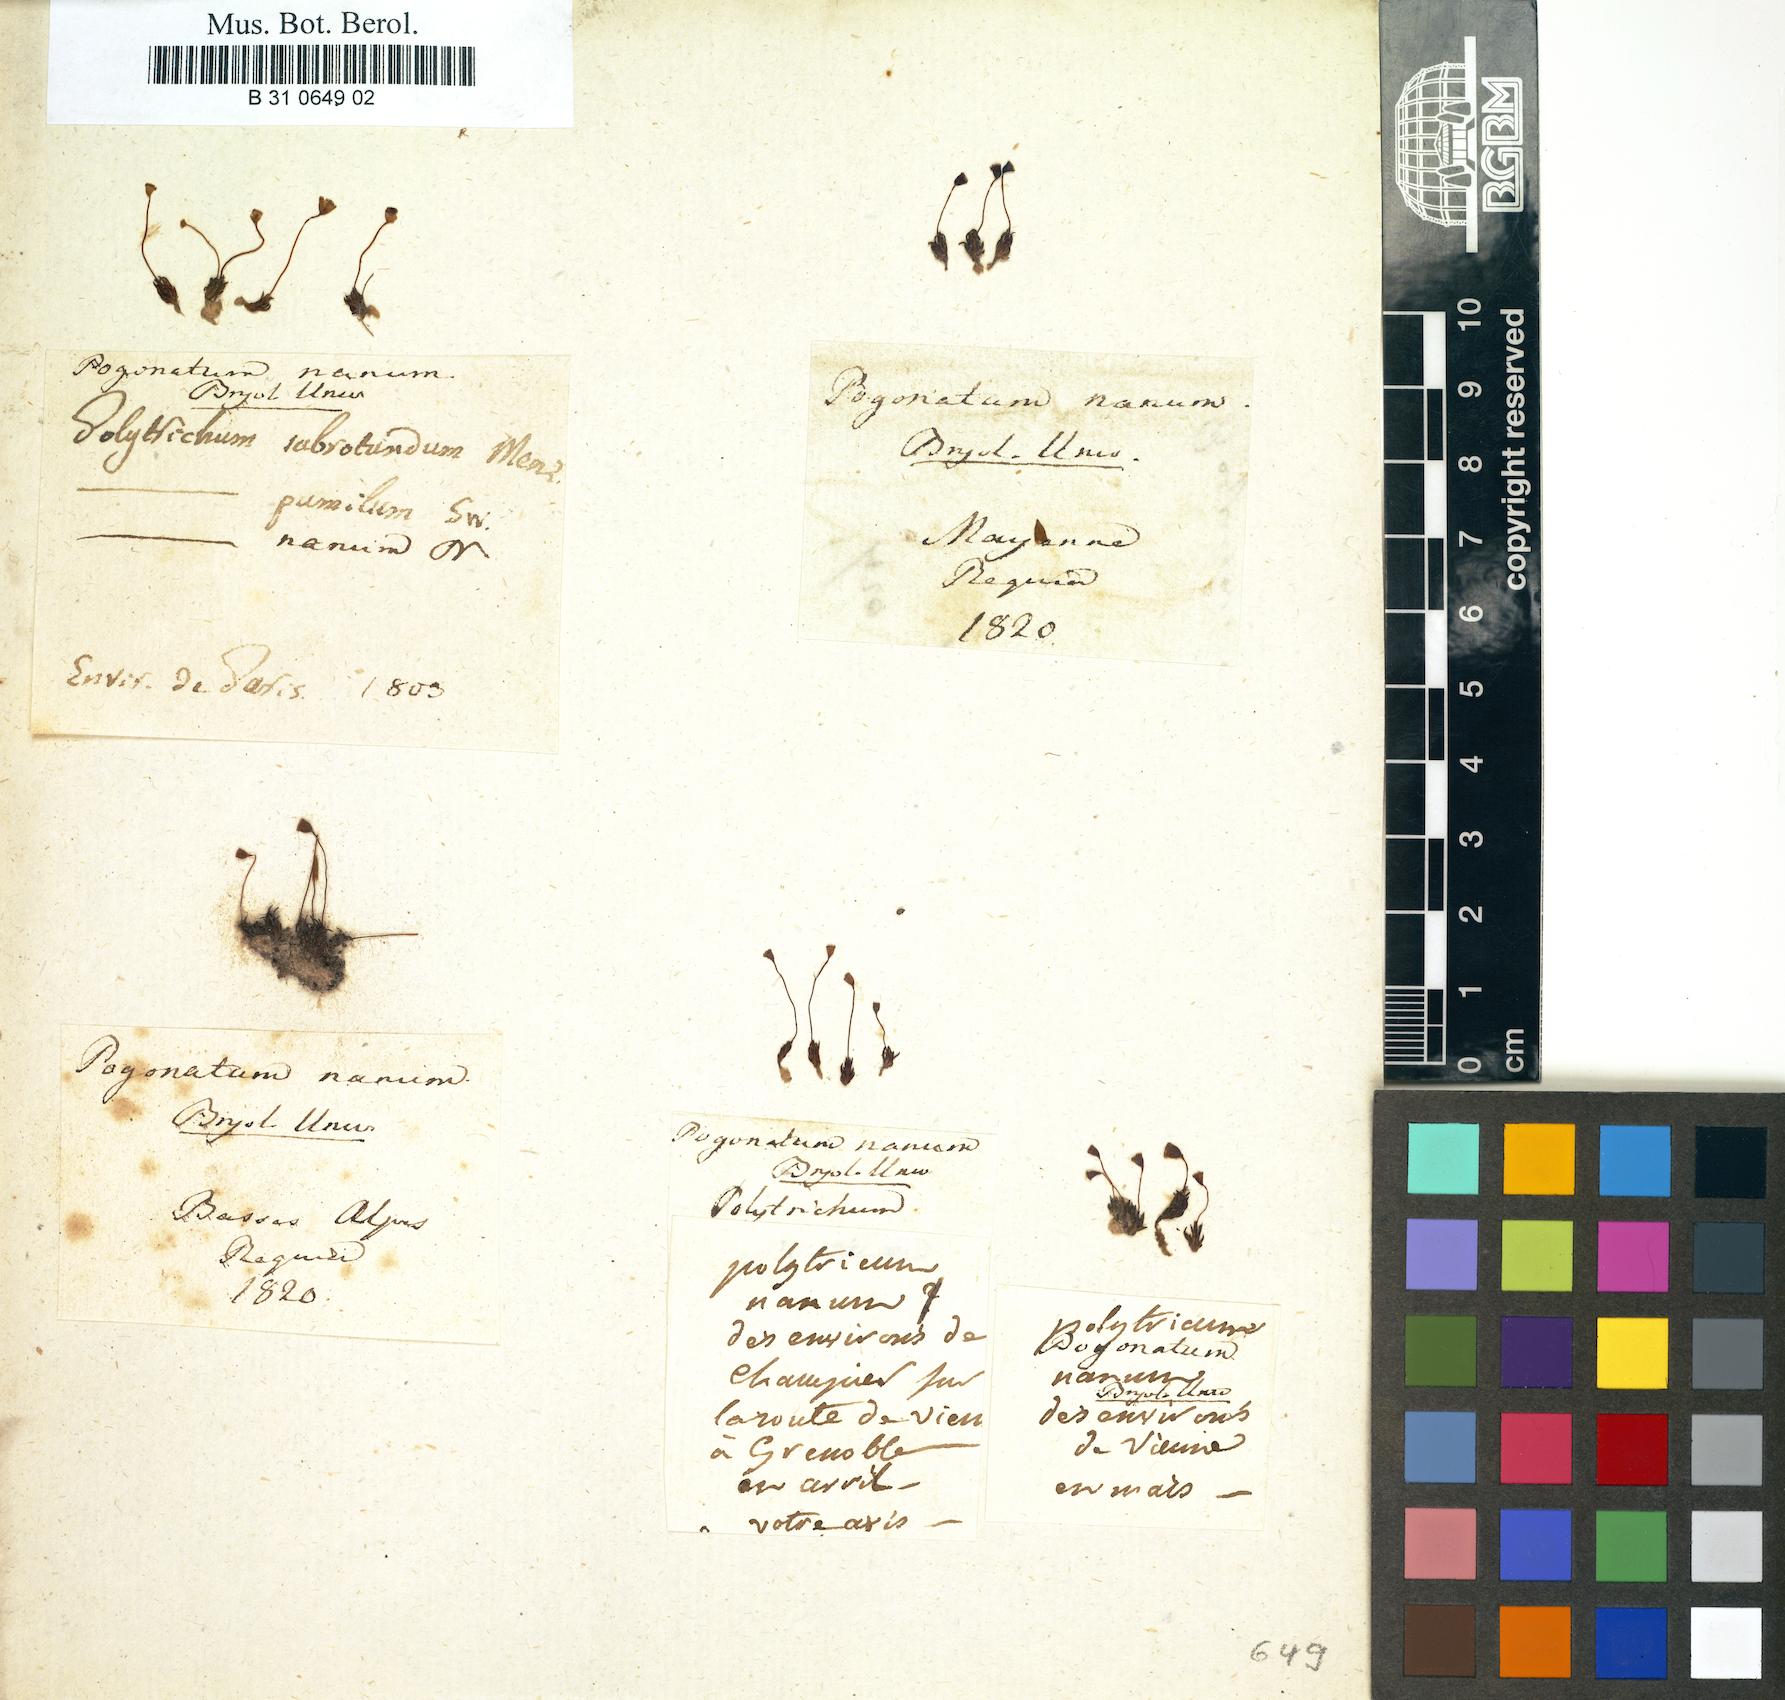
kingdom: Plantae
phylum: Bryophyta
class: Polytrichopsida
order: Polytrichales
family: Polytrichaceae
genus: Pogonatum
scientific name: Pogonatum minus
